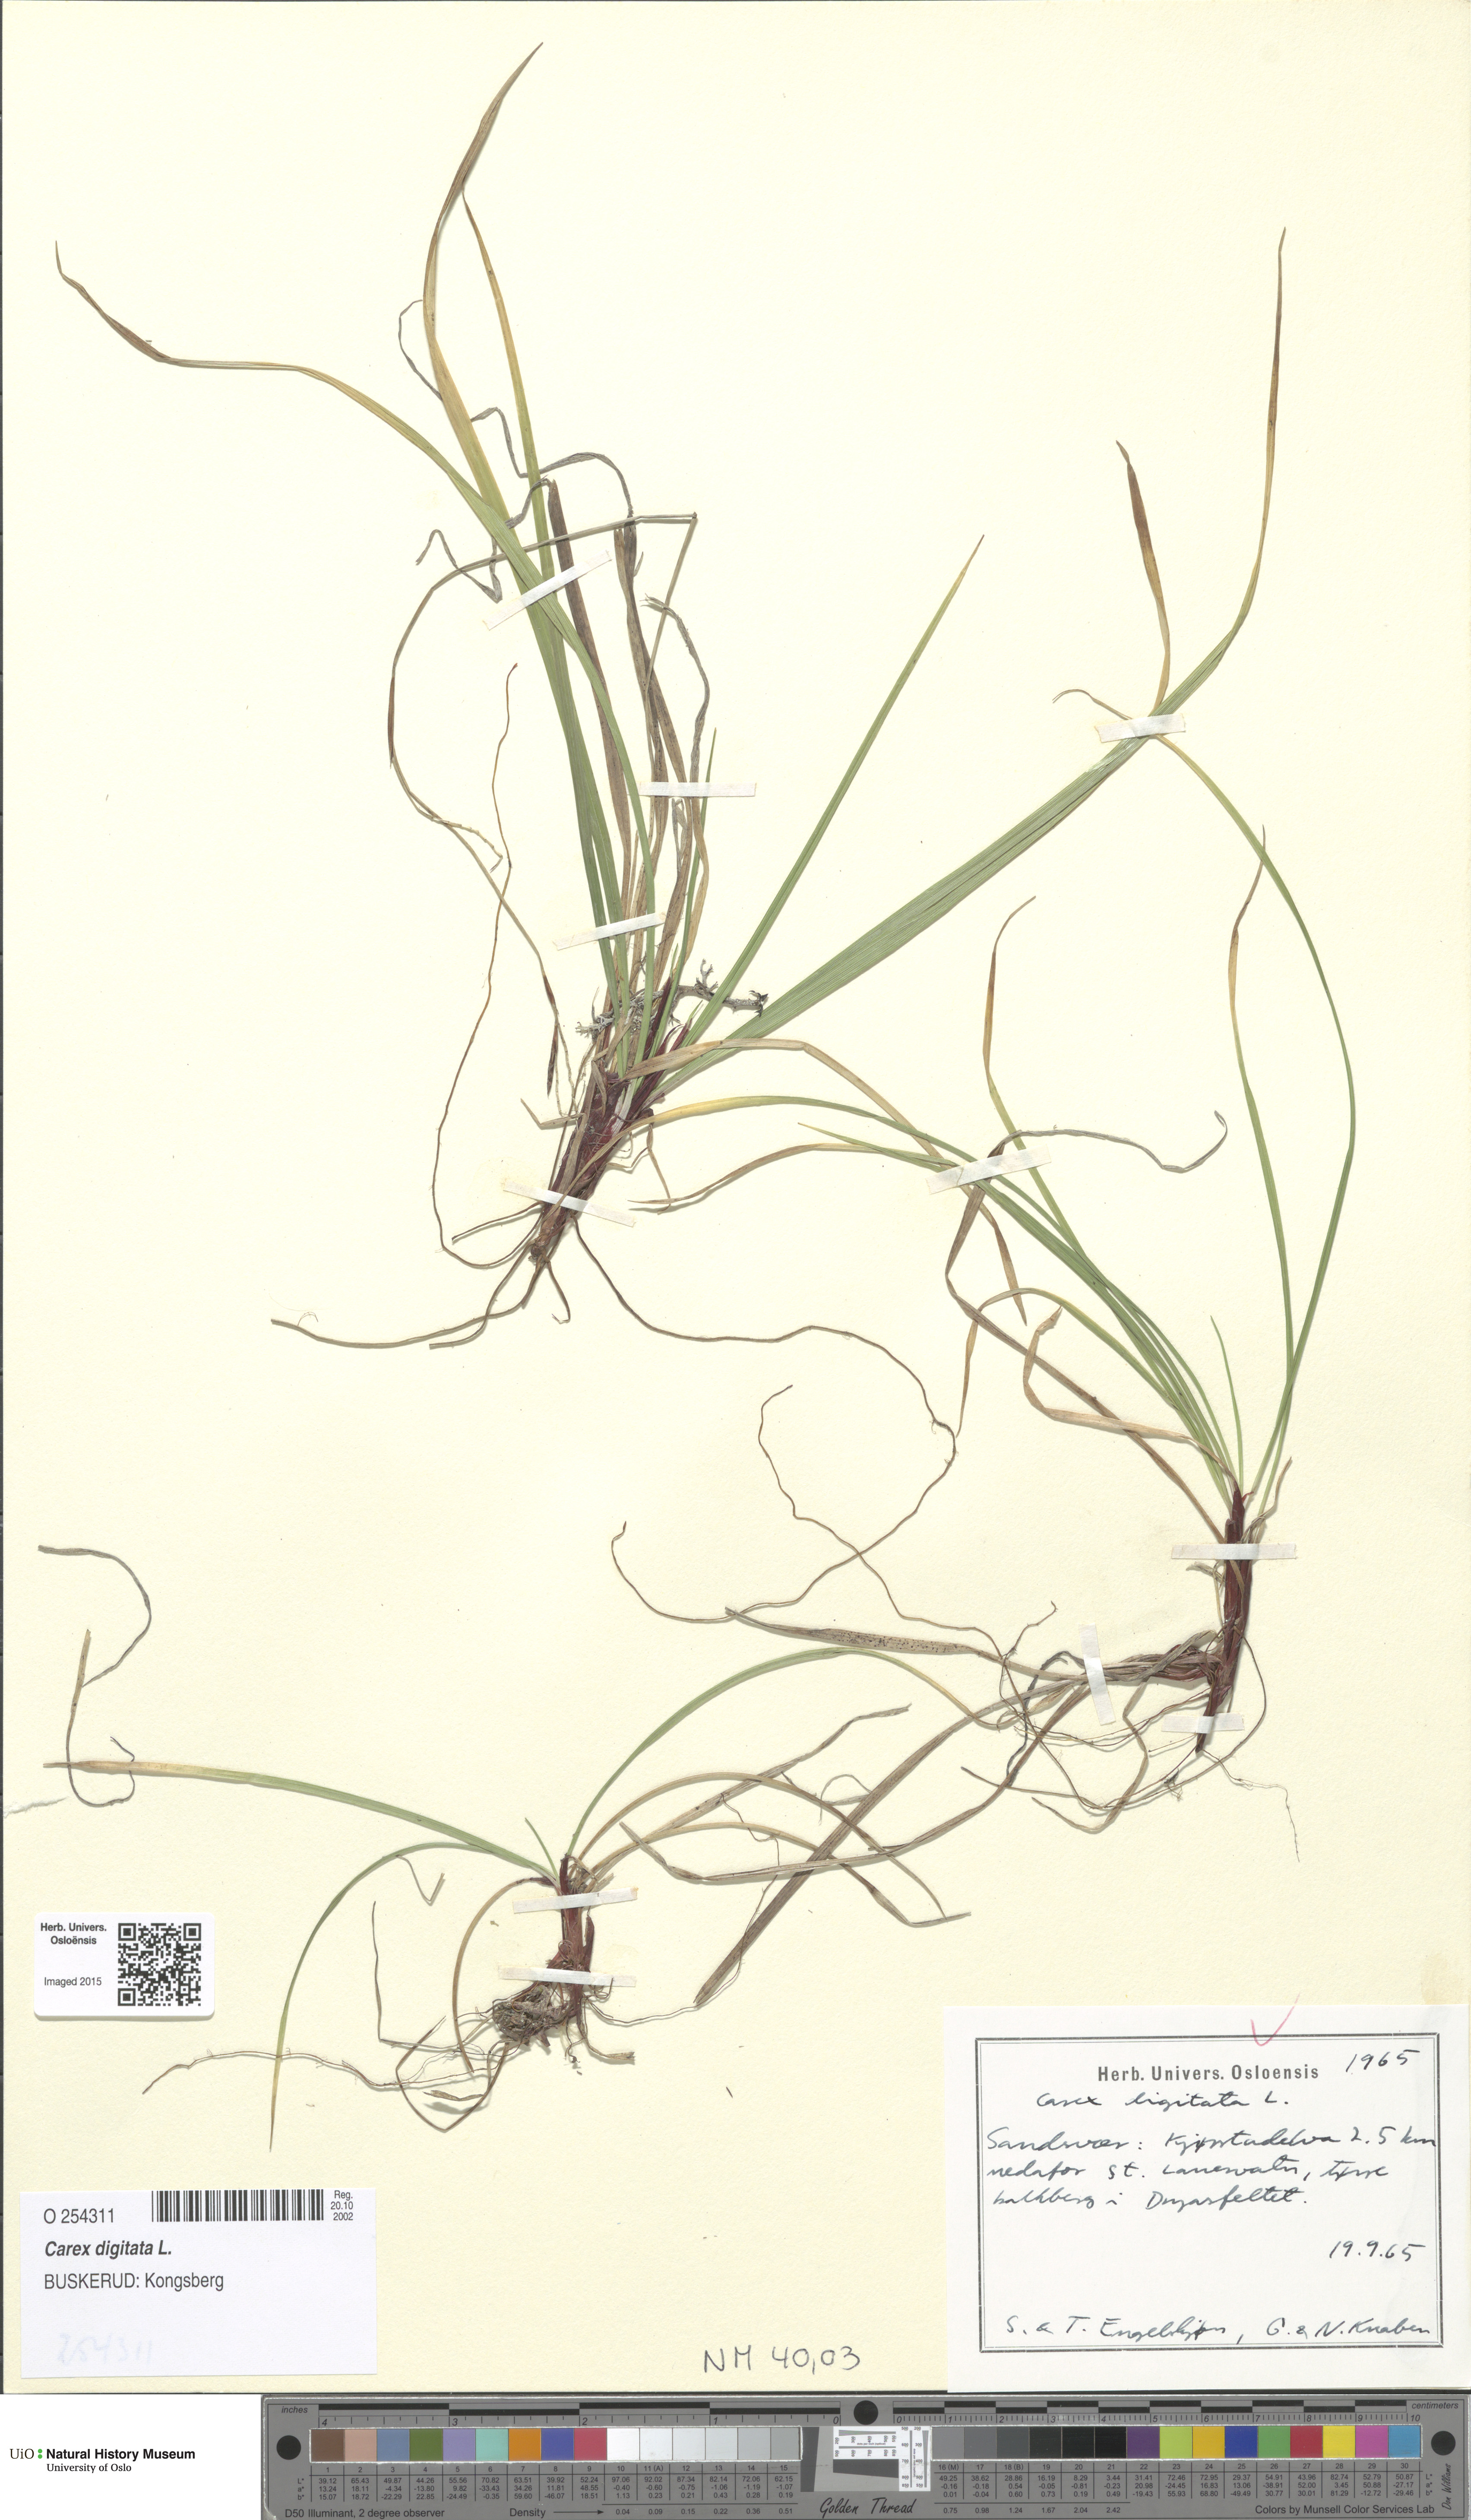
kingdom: Plantae
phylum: Tracheophyta
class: Liliopsida
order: Poales
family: Cyperaceae
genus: Carex
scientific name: Carex digitata
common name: Fingered sedge
